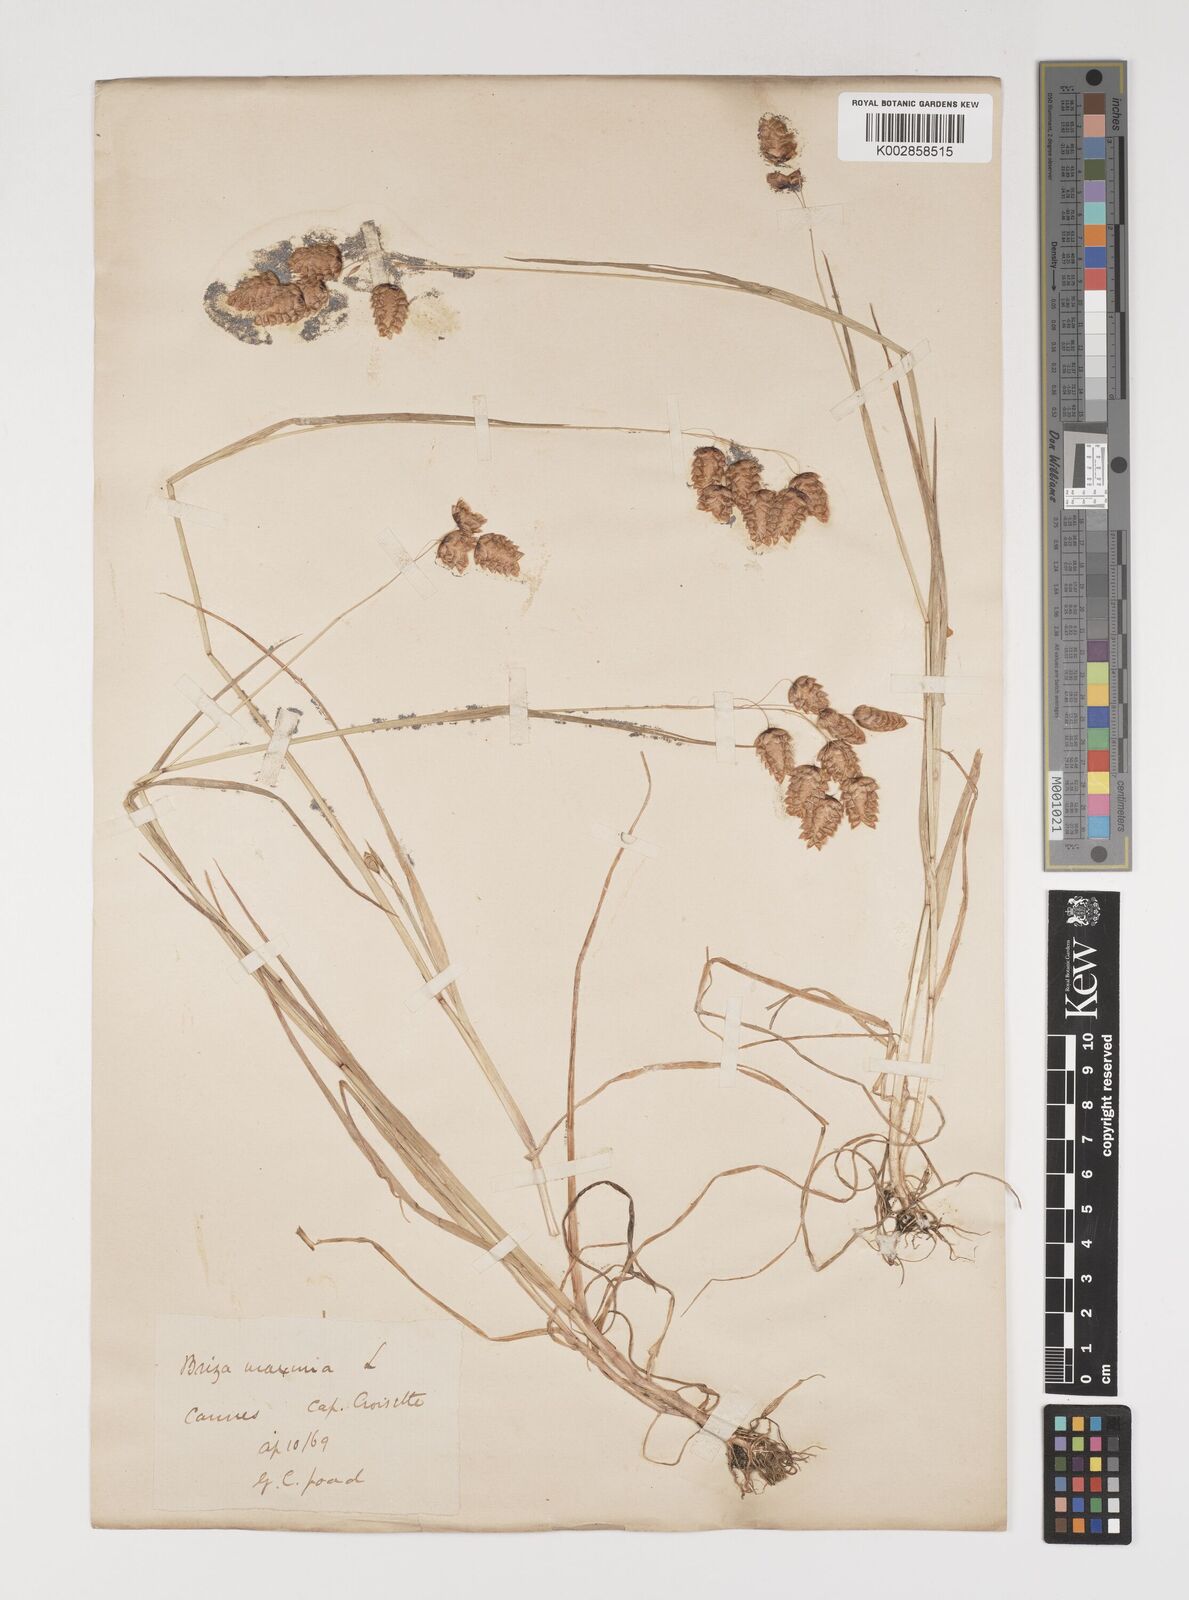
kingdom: Plantae
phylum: Tracheophyta
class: Liliopsida
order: Poales
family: Poaceae
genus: Briza
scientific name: Briza maxima
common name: Big quakinggrass
